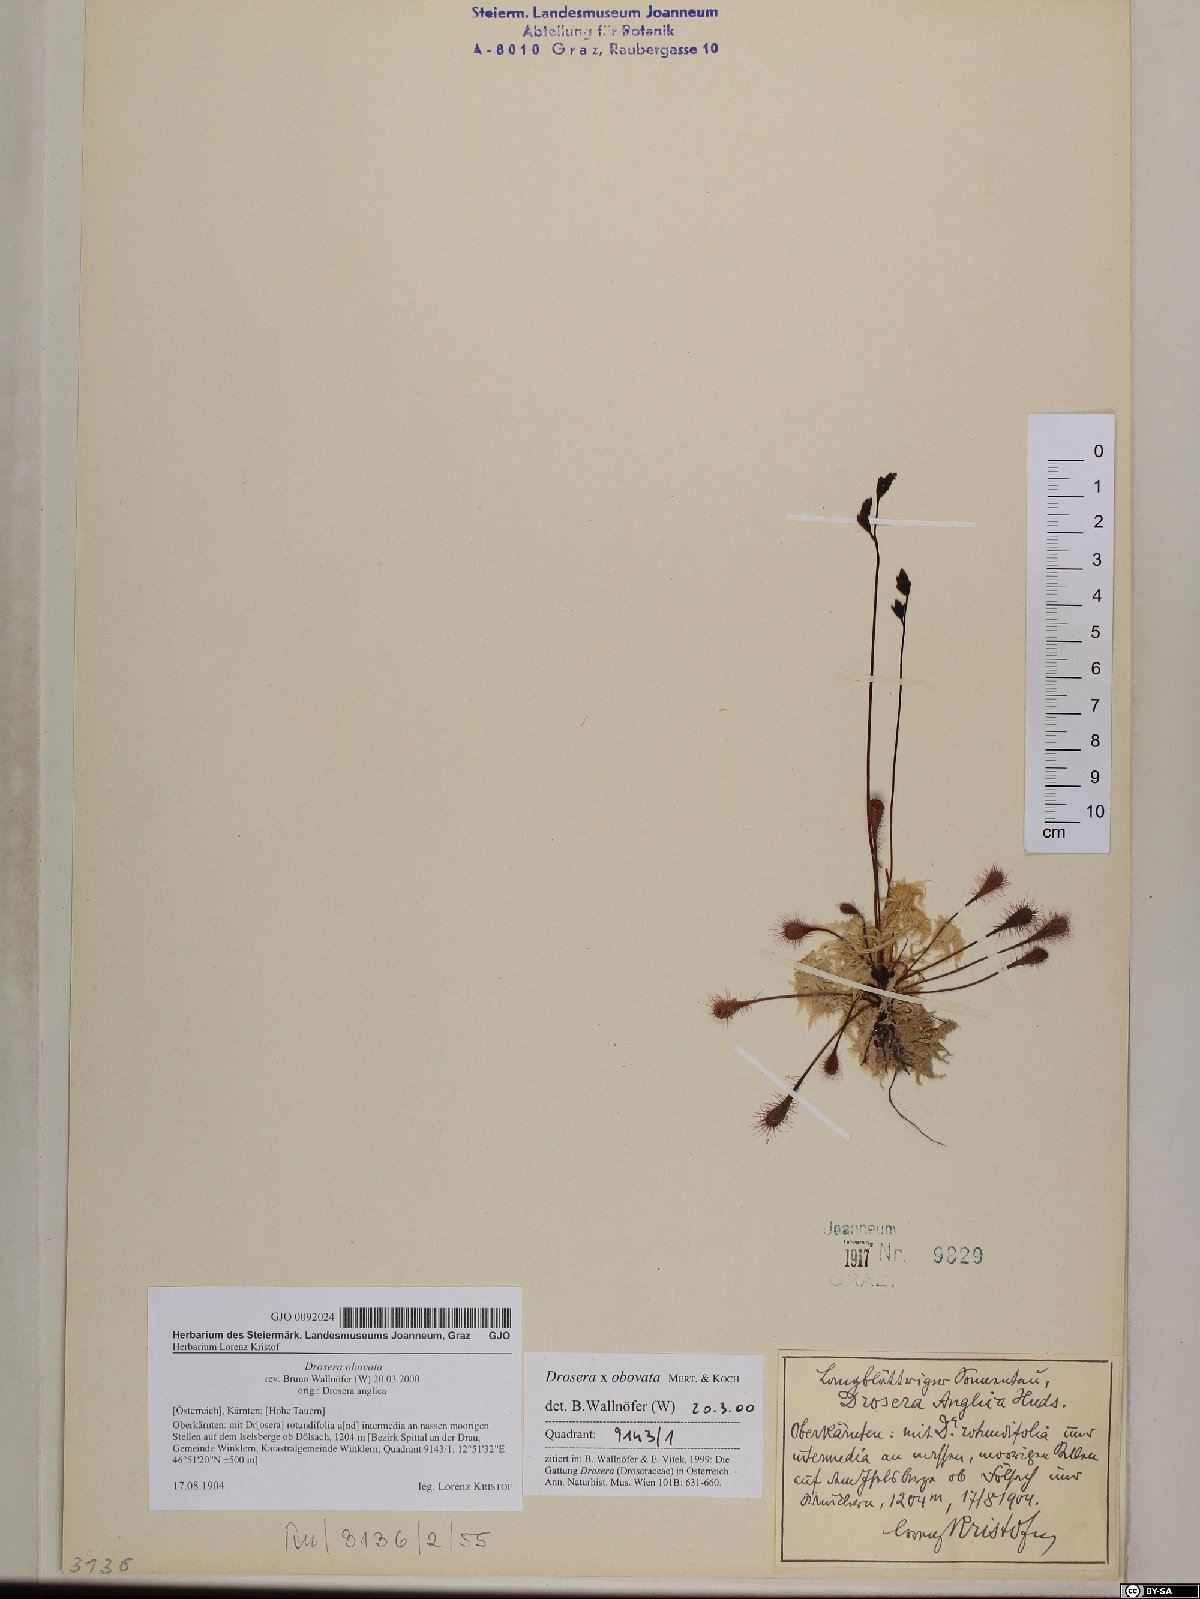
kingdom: Plantae
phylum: Tracheophyta
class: Magnoliopsida
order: Caryophyllales
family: Droseraceae
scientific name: Droseraceae
